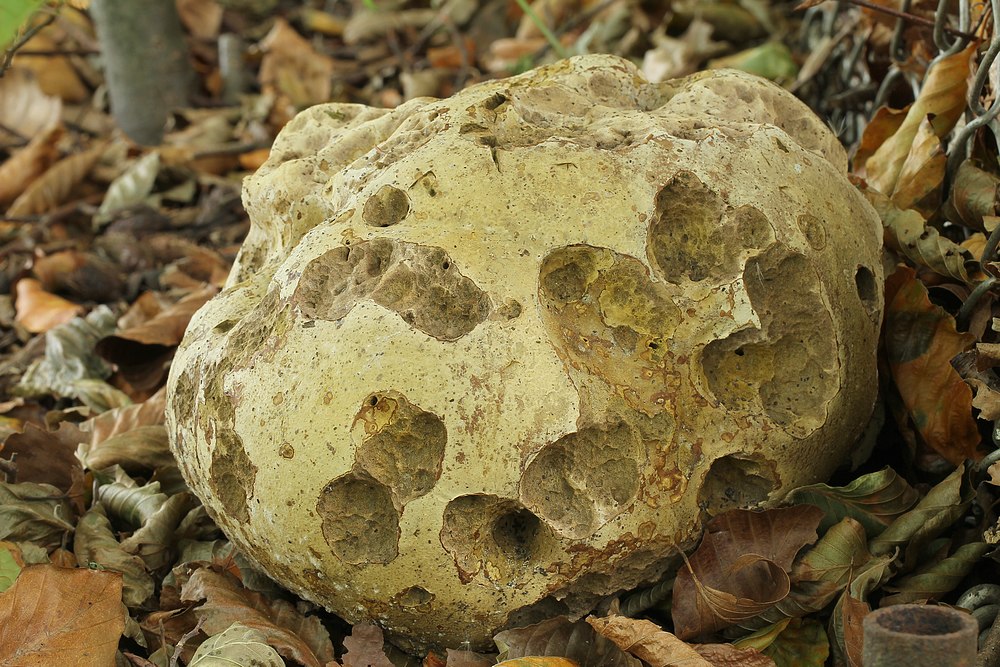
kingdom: Fungi
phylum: Basidiomycota
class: Agaricomycetes
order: Agaricales
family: Lycoperdaceae
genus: Calvatia
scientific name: Calvatia gigantea
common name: kæmpestøvbold
